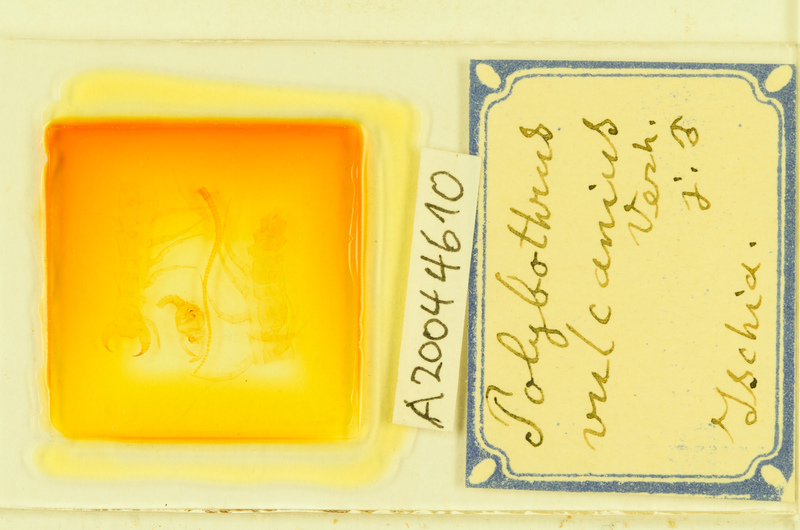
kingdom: Animalia
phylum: Arthropoda
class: Chilopoda
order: Lithobiomorpha
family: Lithobiidae
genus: Eupolybothrus
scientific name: Eupolybothrus imperialis
